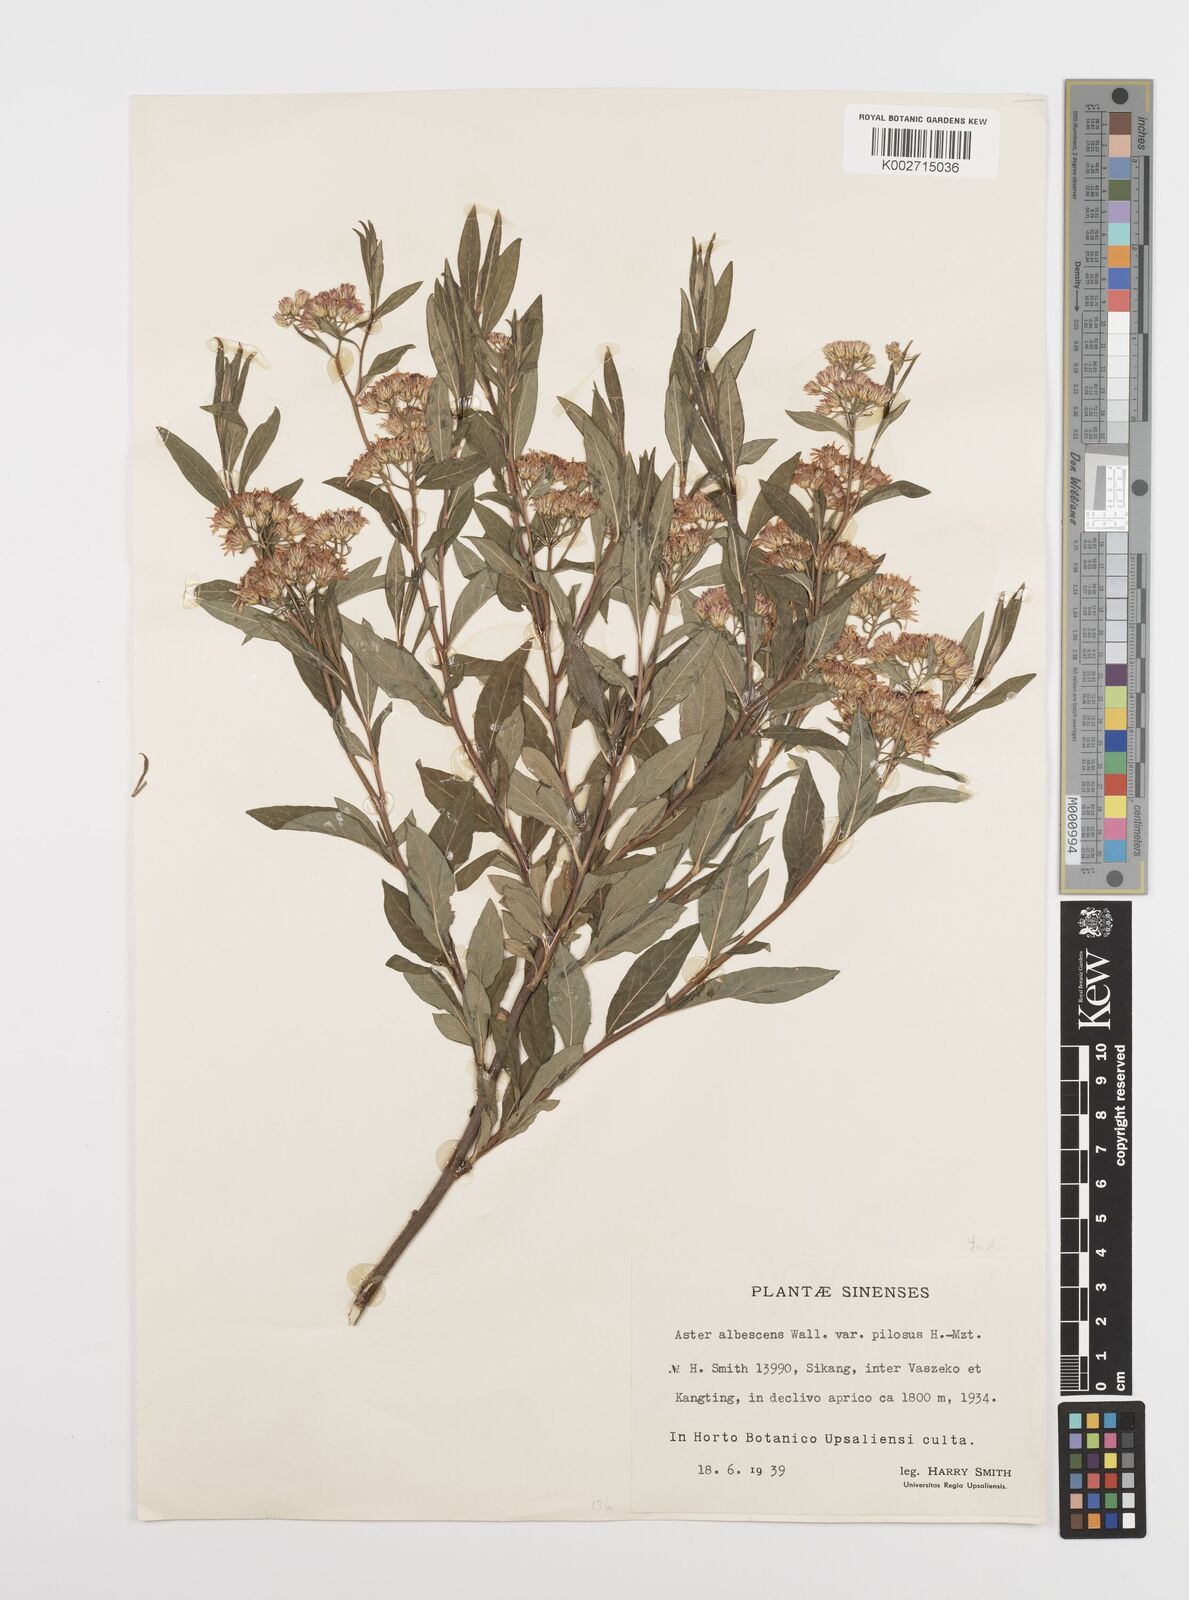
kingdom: Plantae
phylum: Tracheophyta
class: Magnoliopsida
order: Asterales
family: Asteraceae
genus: Sinosidus
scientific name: Sinosidus albescens
